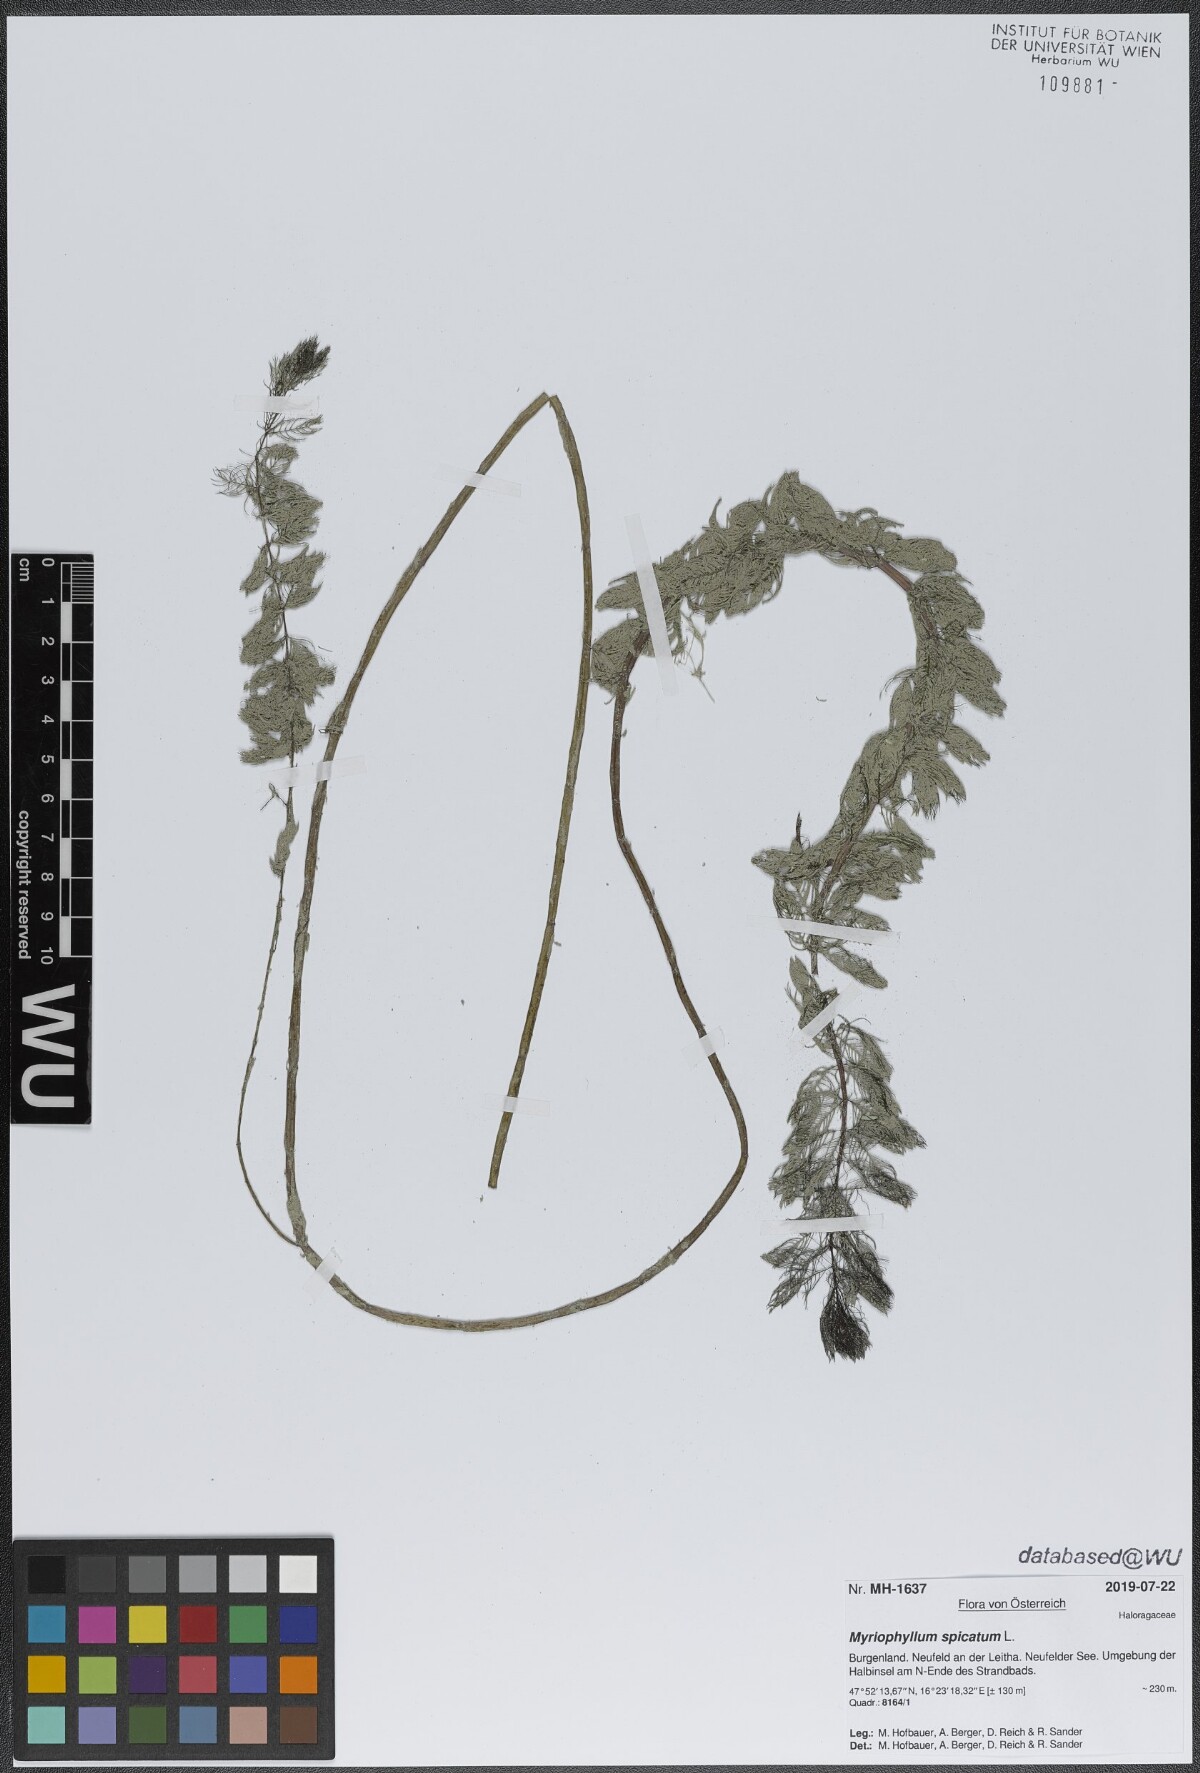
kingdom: Plantae
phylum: Tracheophyta
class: Magnoliopsida
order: Saxifragales
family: Haloragaceae
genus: Myriophyllum
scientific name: Myriophyllum spicatum
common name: Spiked water-milfoil
